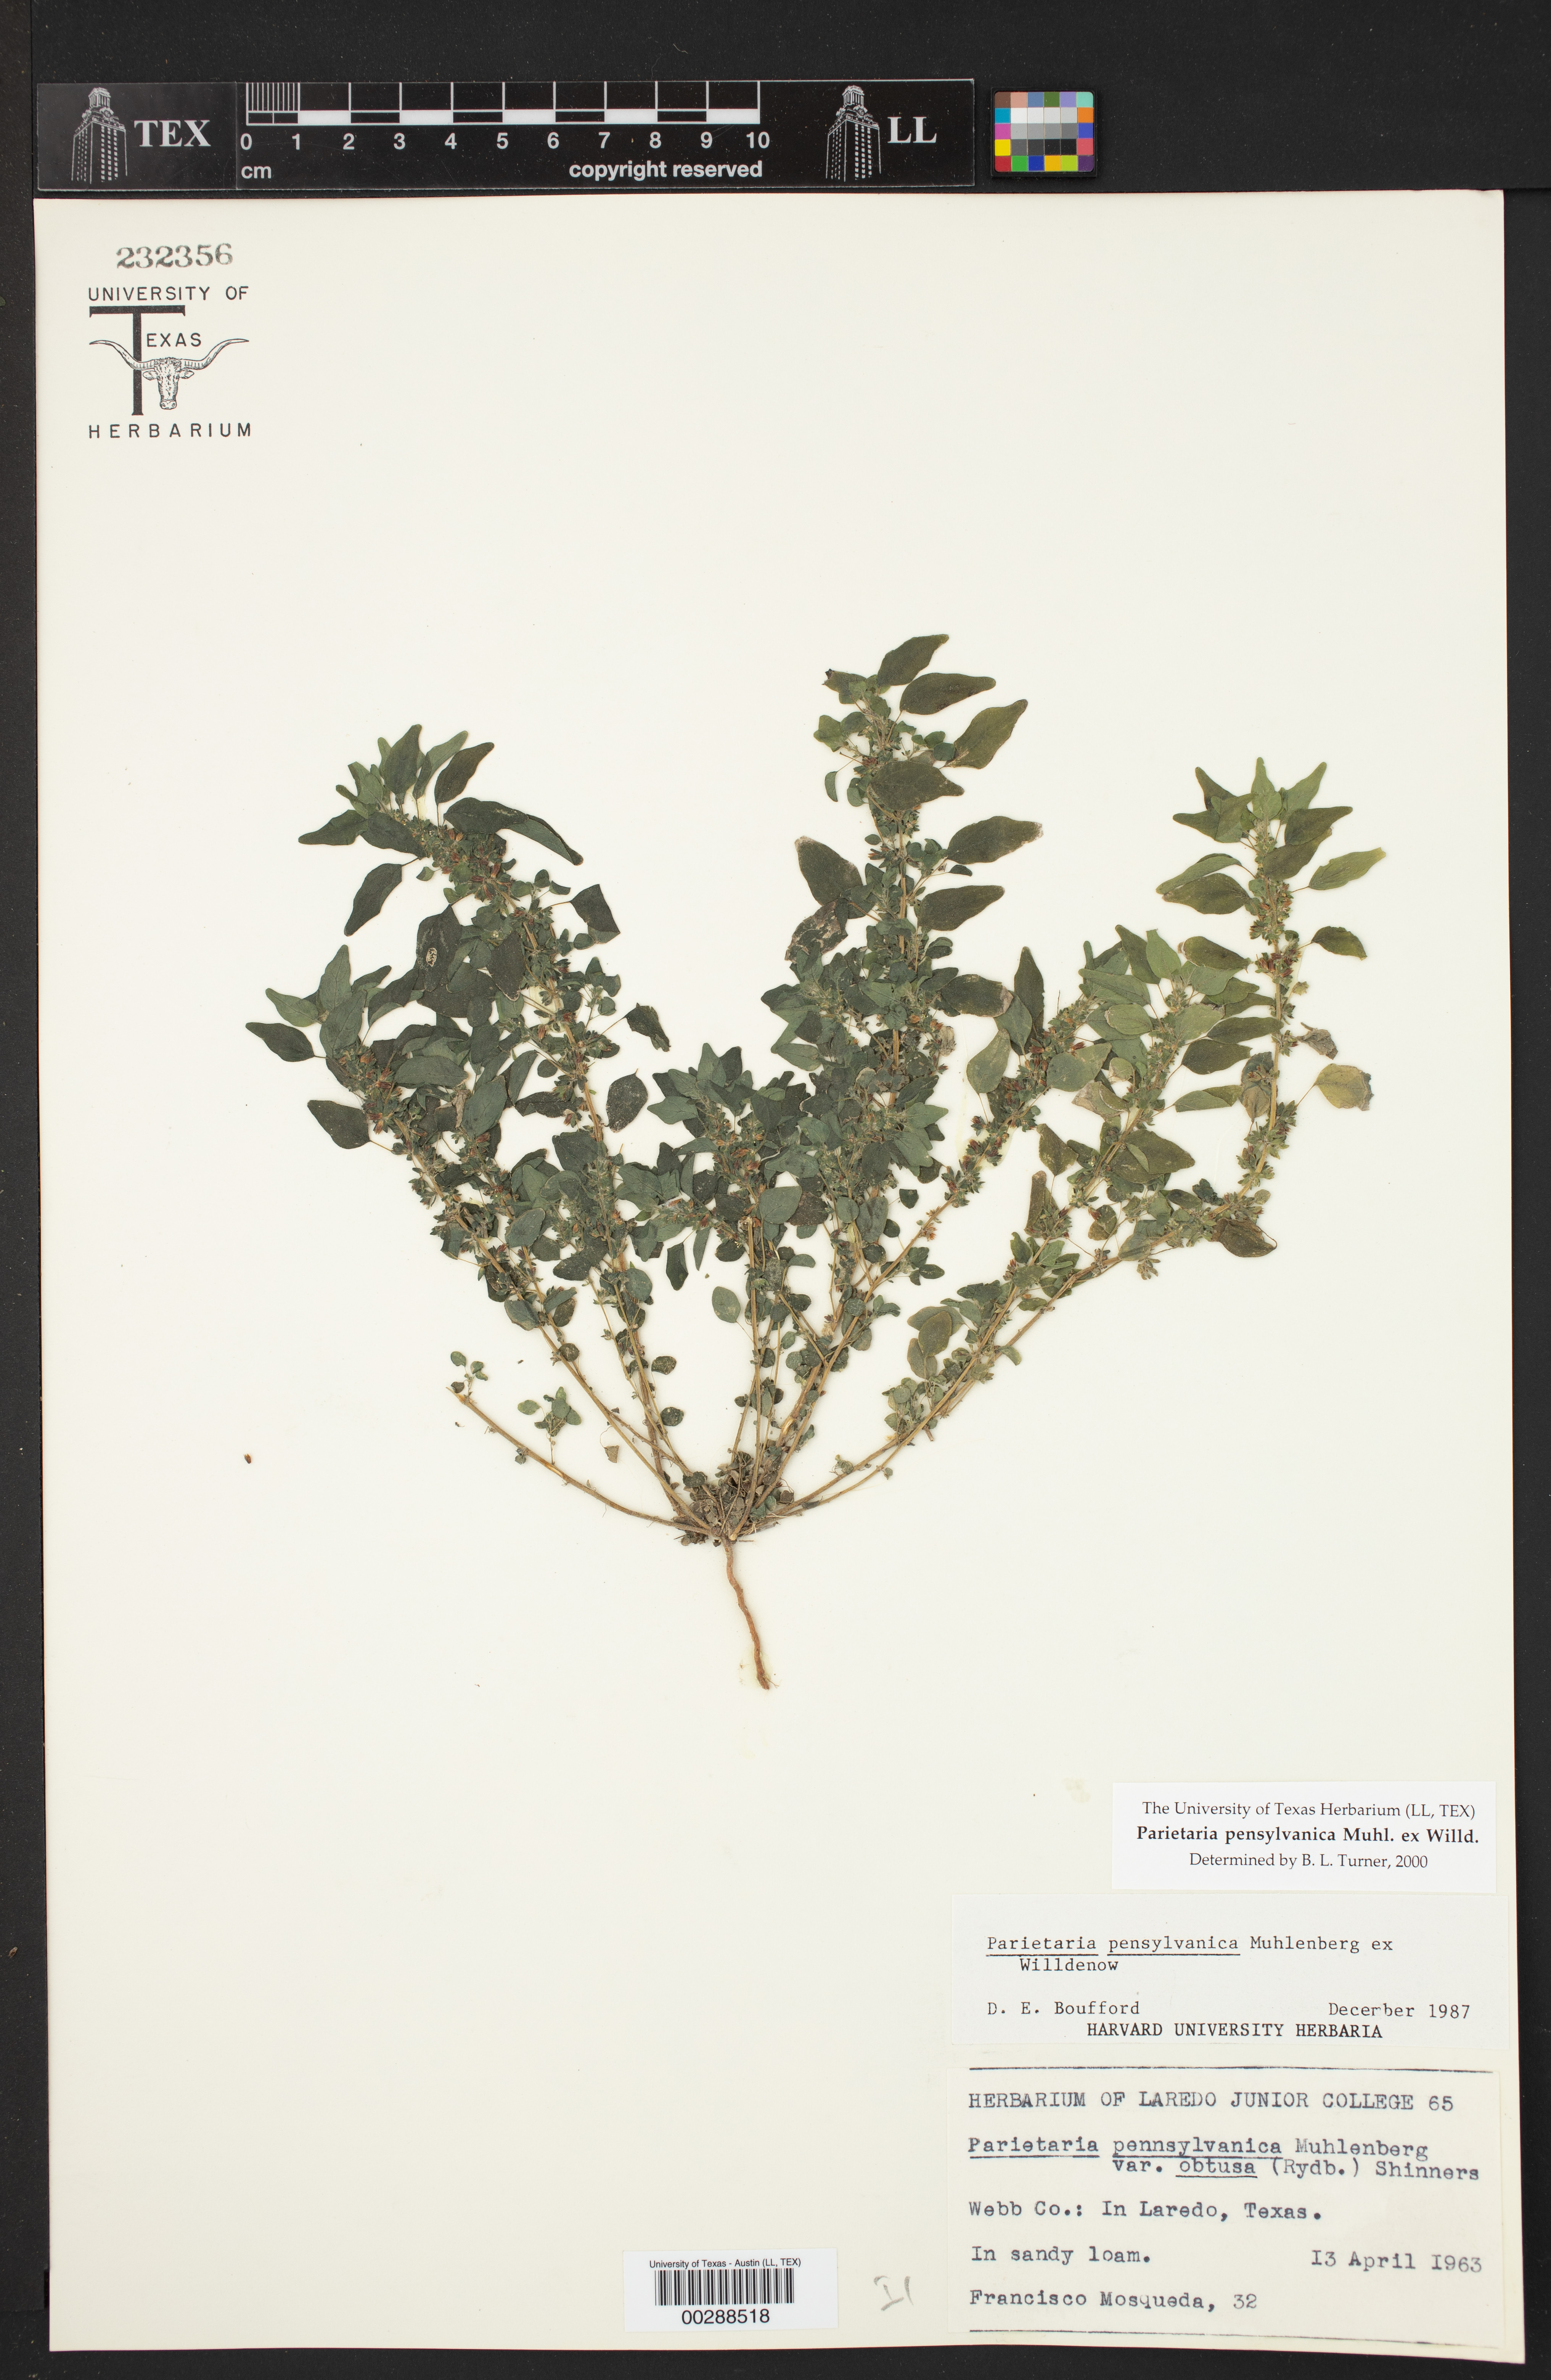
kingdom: Plantae
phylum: Tracheophyta
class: Magnoliopsida
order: Rosales
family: Urticaceae
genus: Parietaria
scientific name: Parietaria pensylvanica
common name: Pennsylvania pellitory
